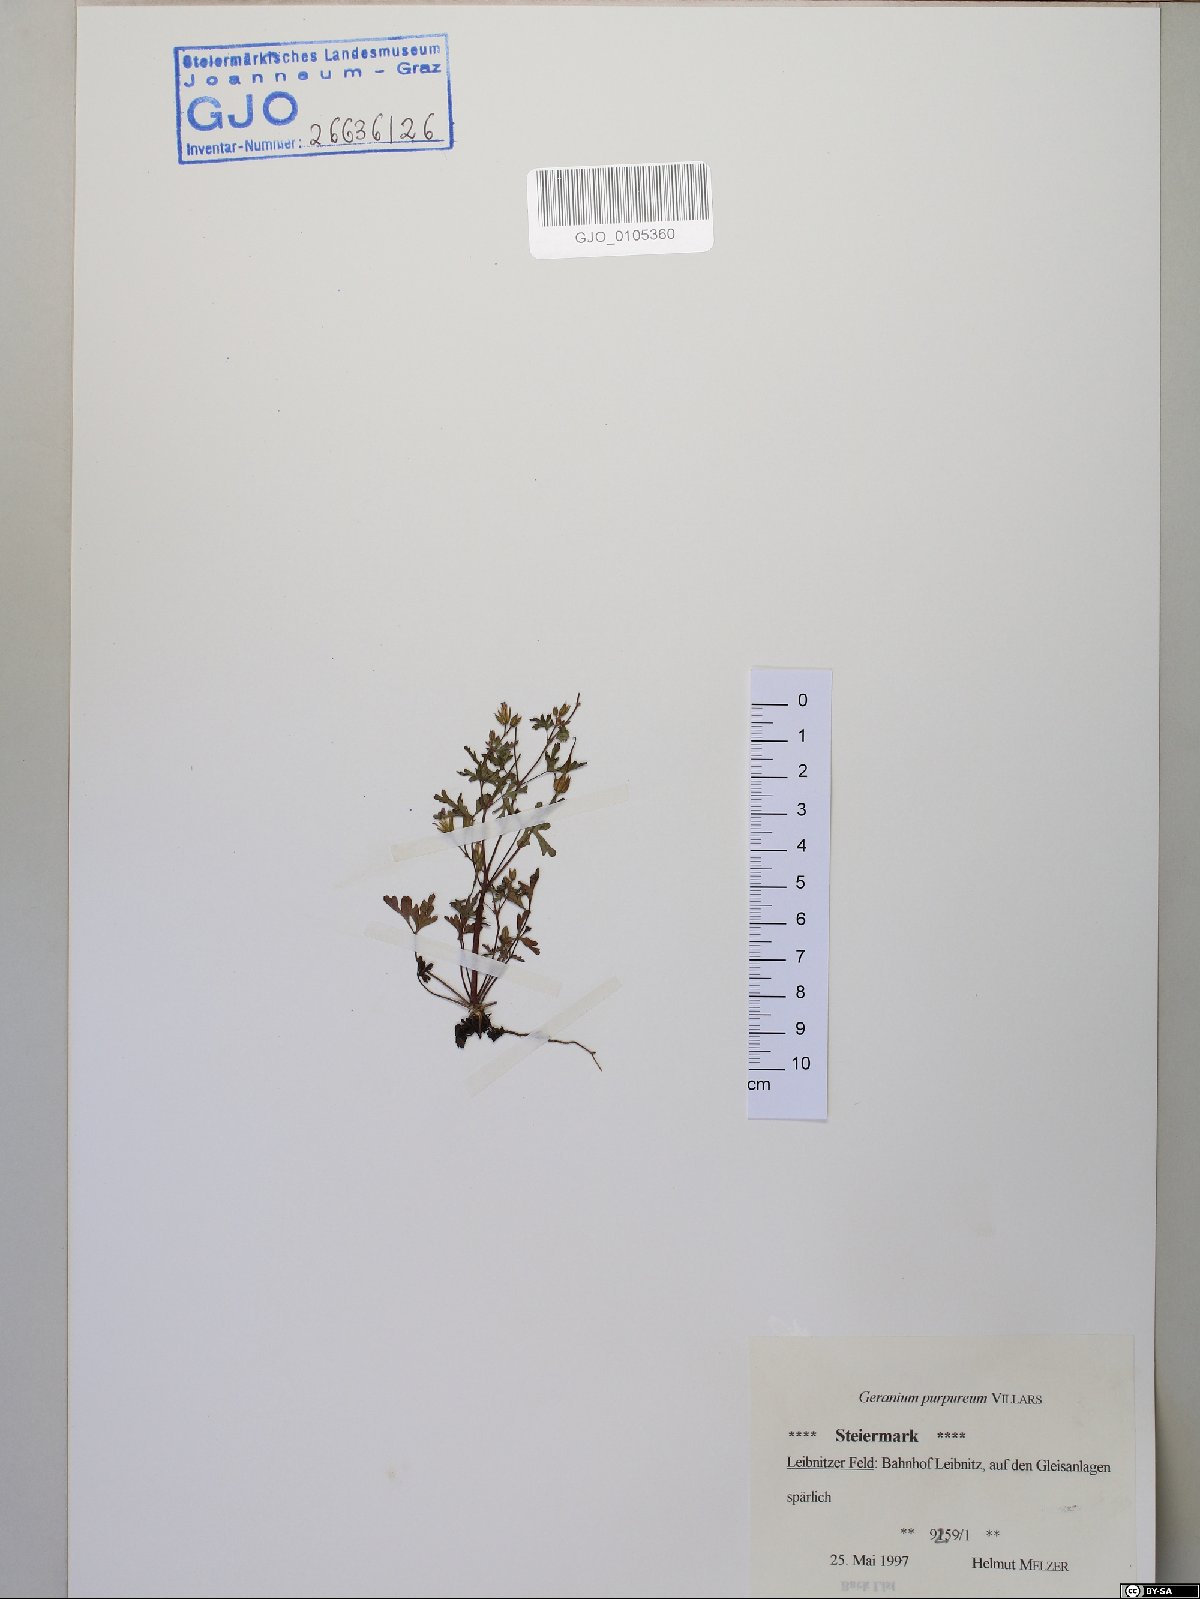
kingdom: Plantae
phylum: Tracheophyta
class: Magnoliopsida
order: Geraniales
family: Geraniaceae
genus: Geranium
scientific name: Geranium purpureum
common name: Little-robin
